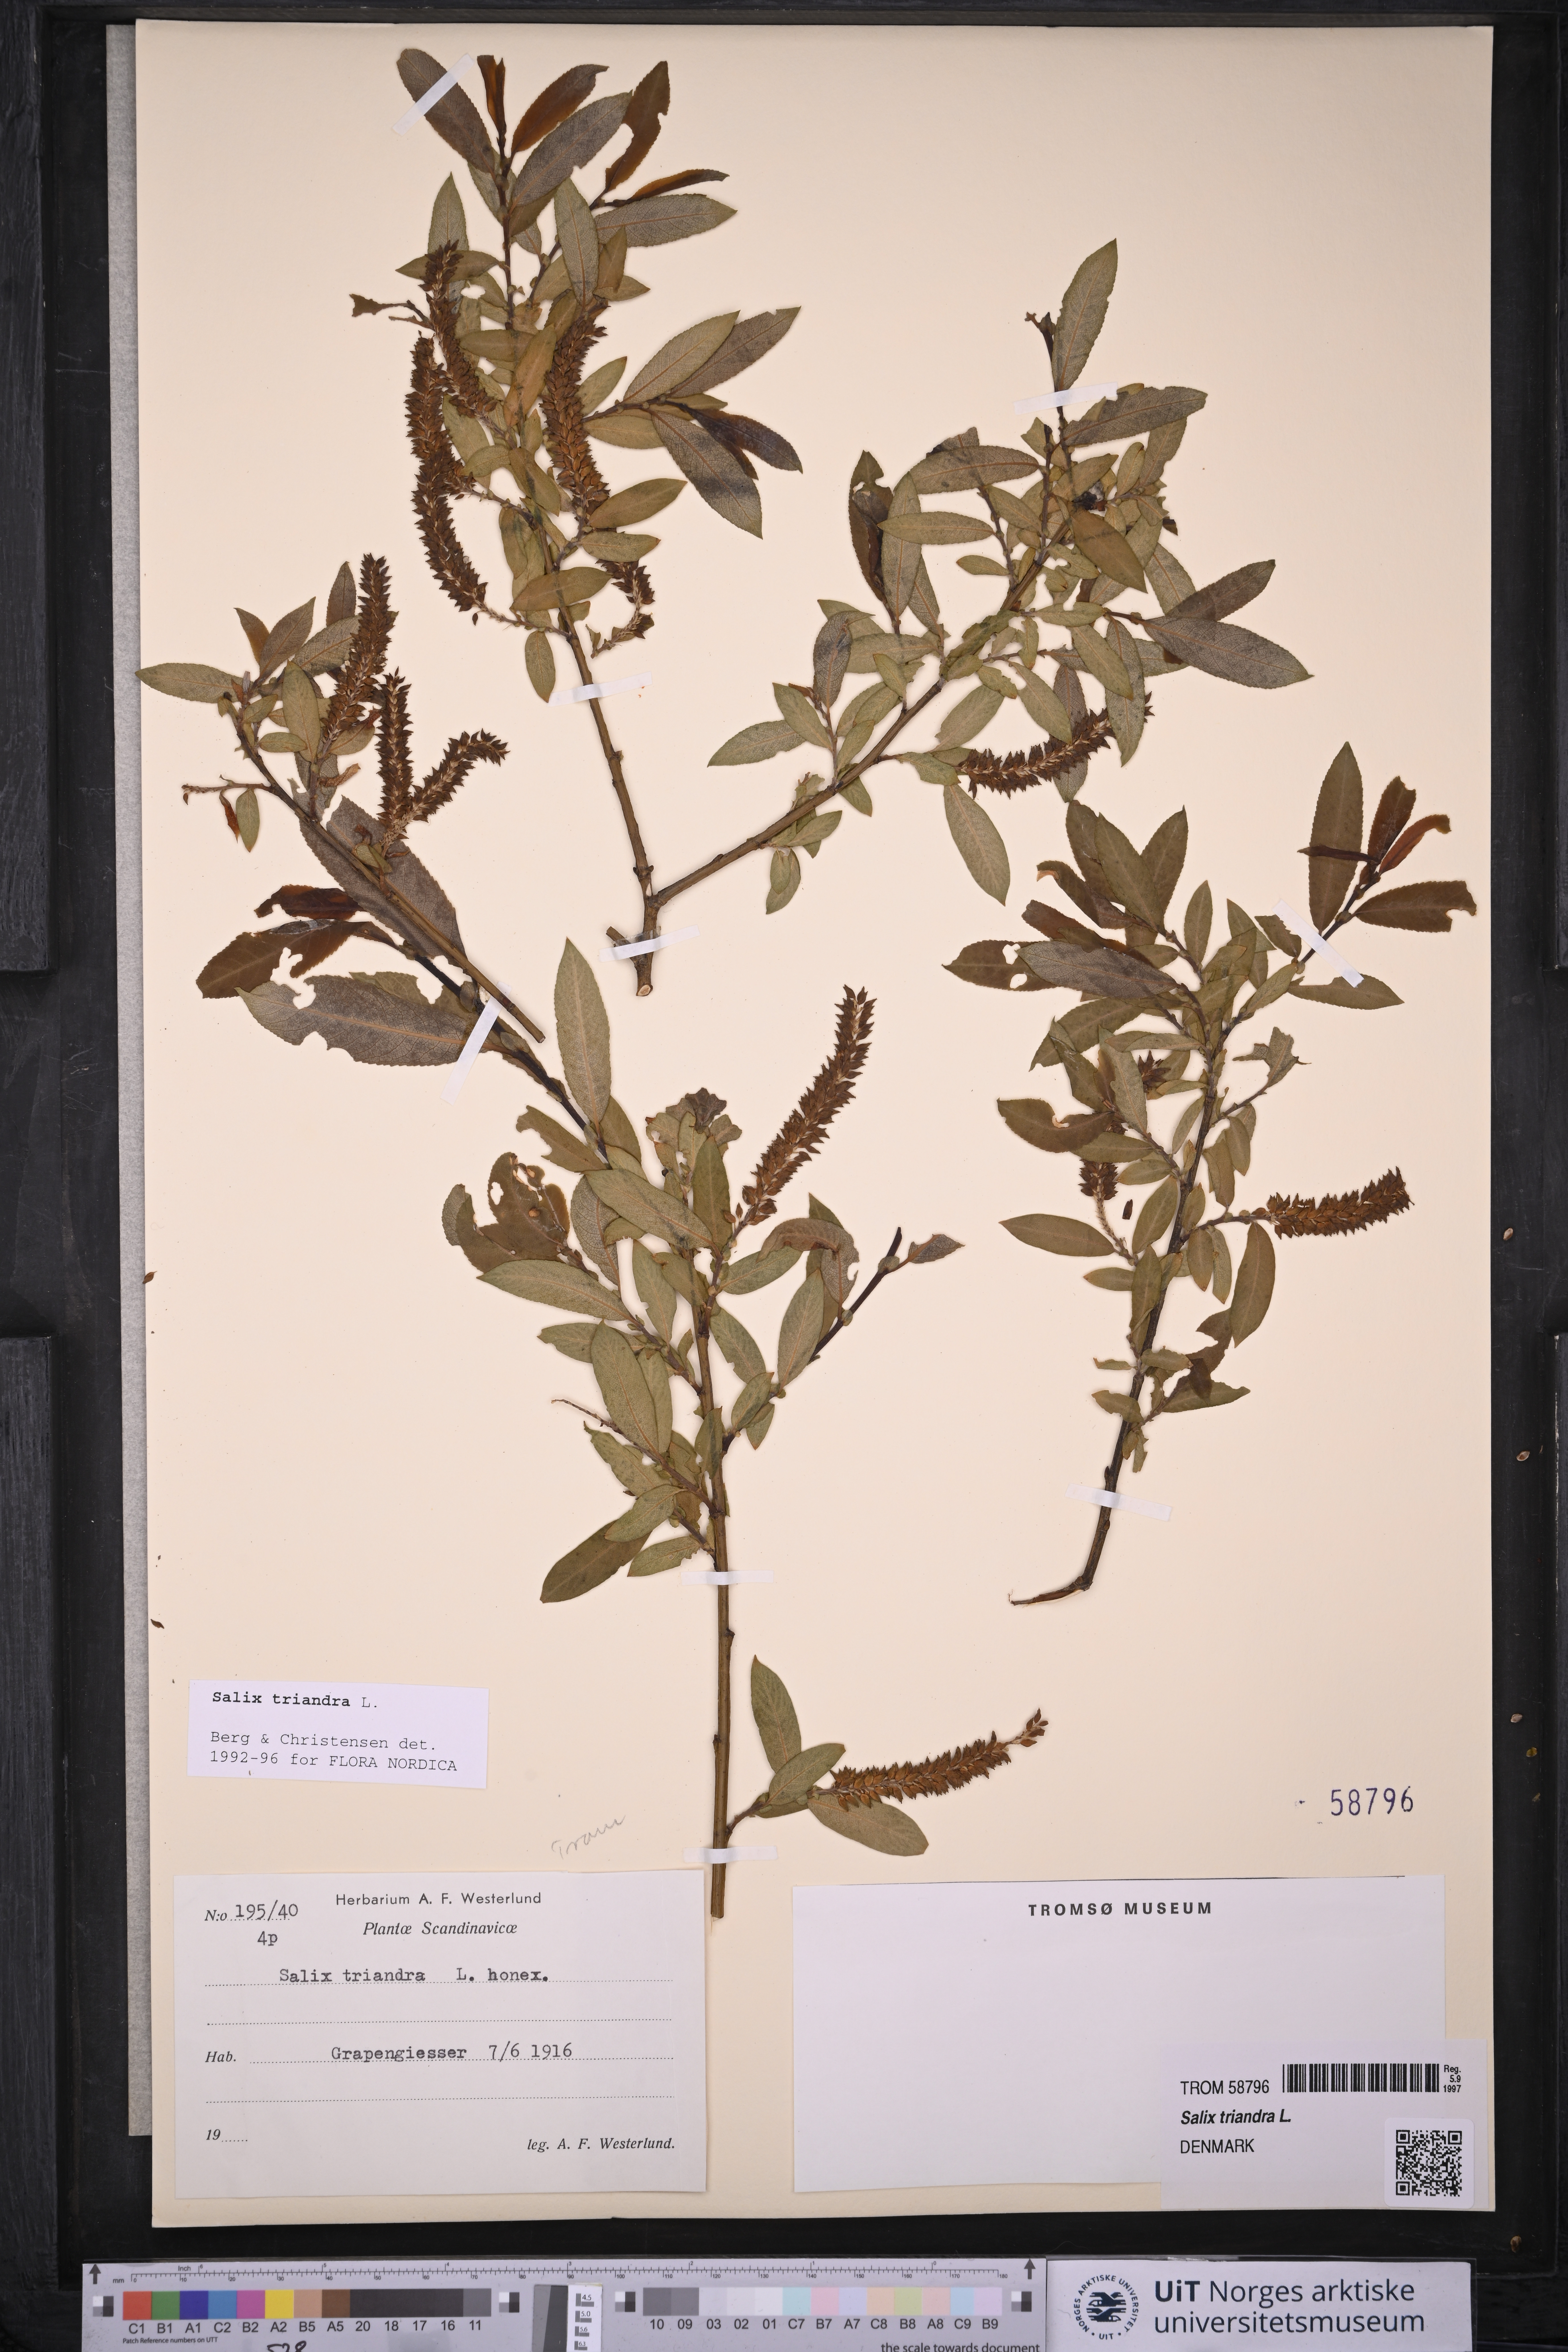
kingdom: Plantae
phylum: Tracheophyta
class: Magnoliopsida
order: Malpighiales
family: Salicaceae
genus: Salix
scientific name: Salix triandra
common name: Almond willow
